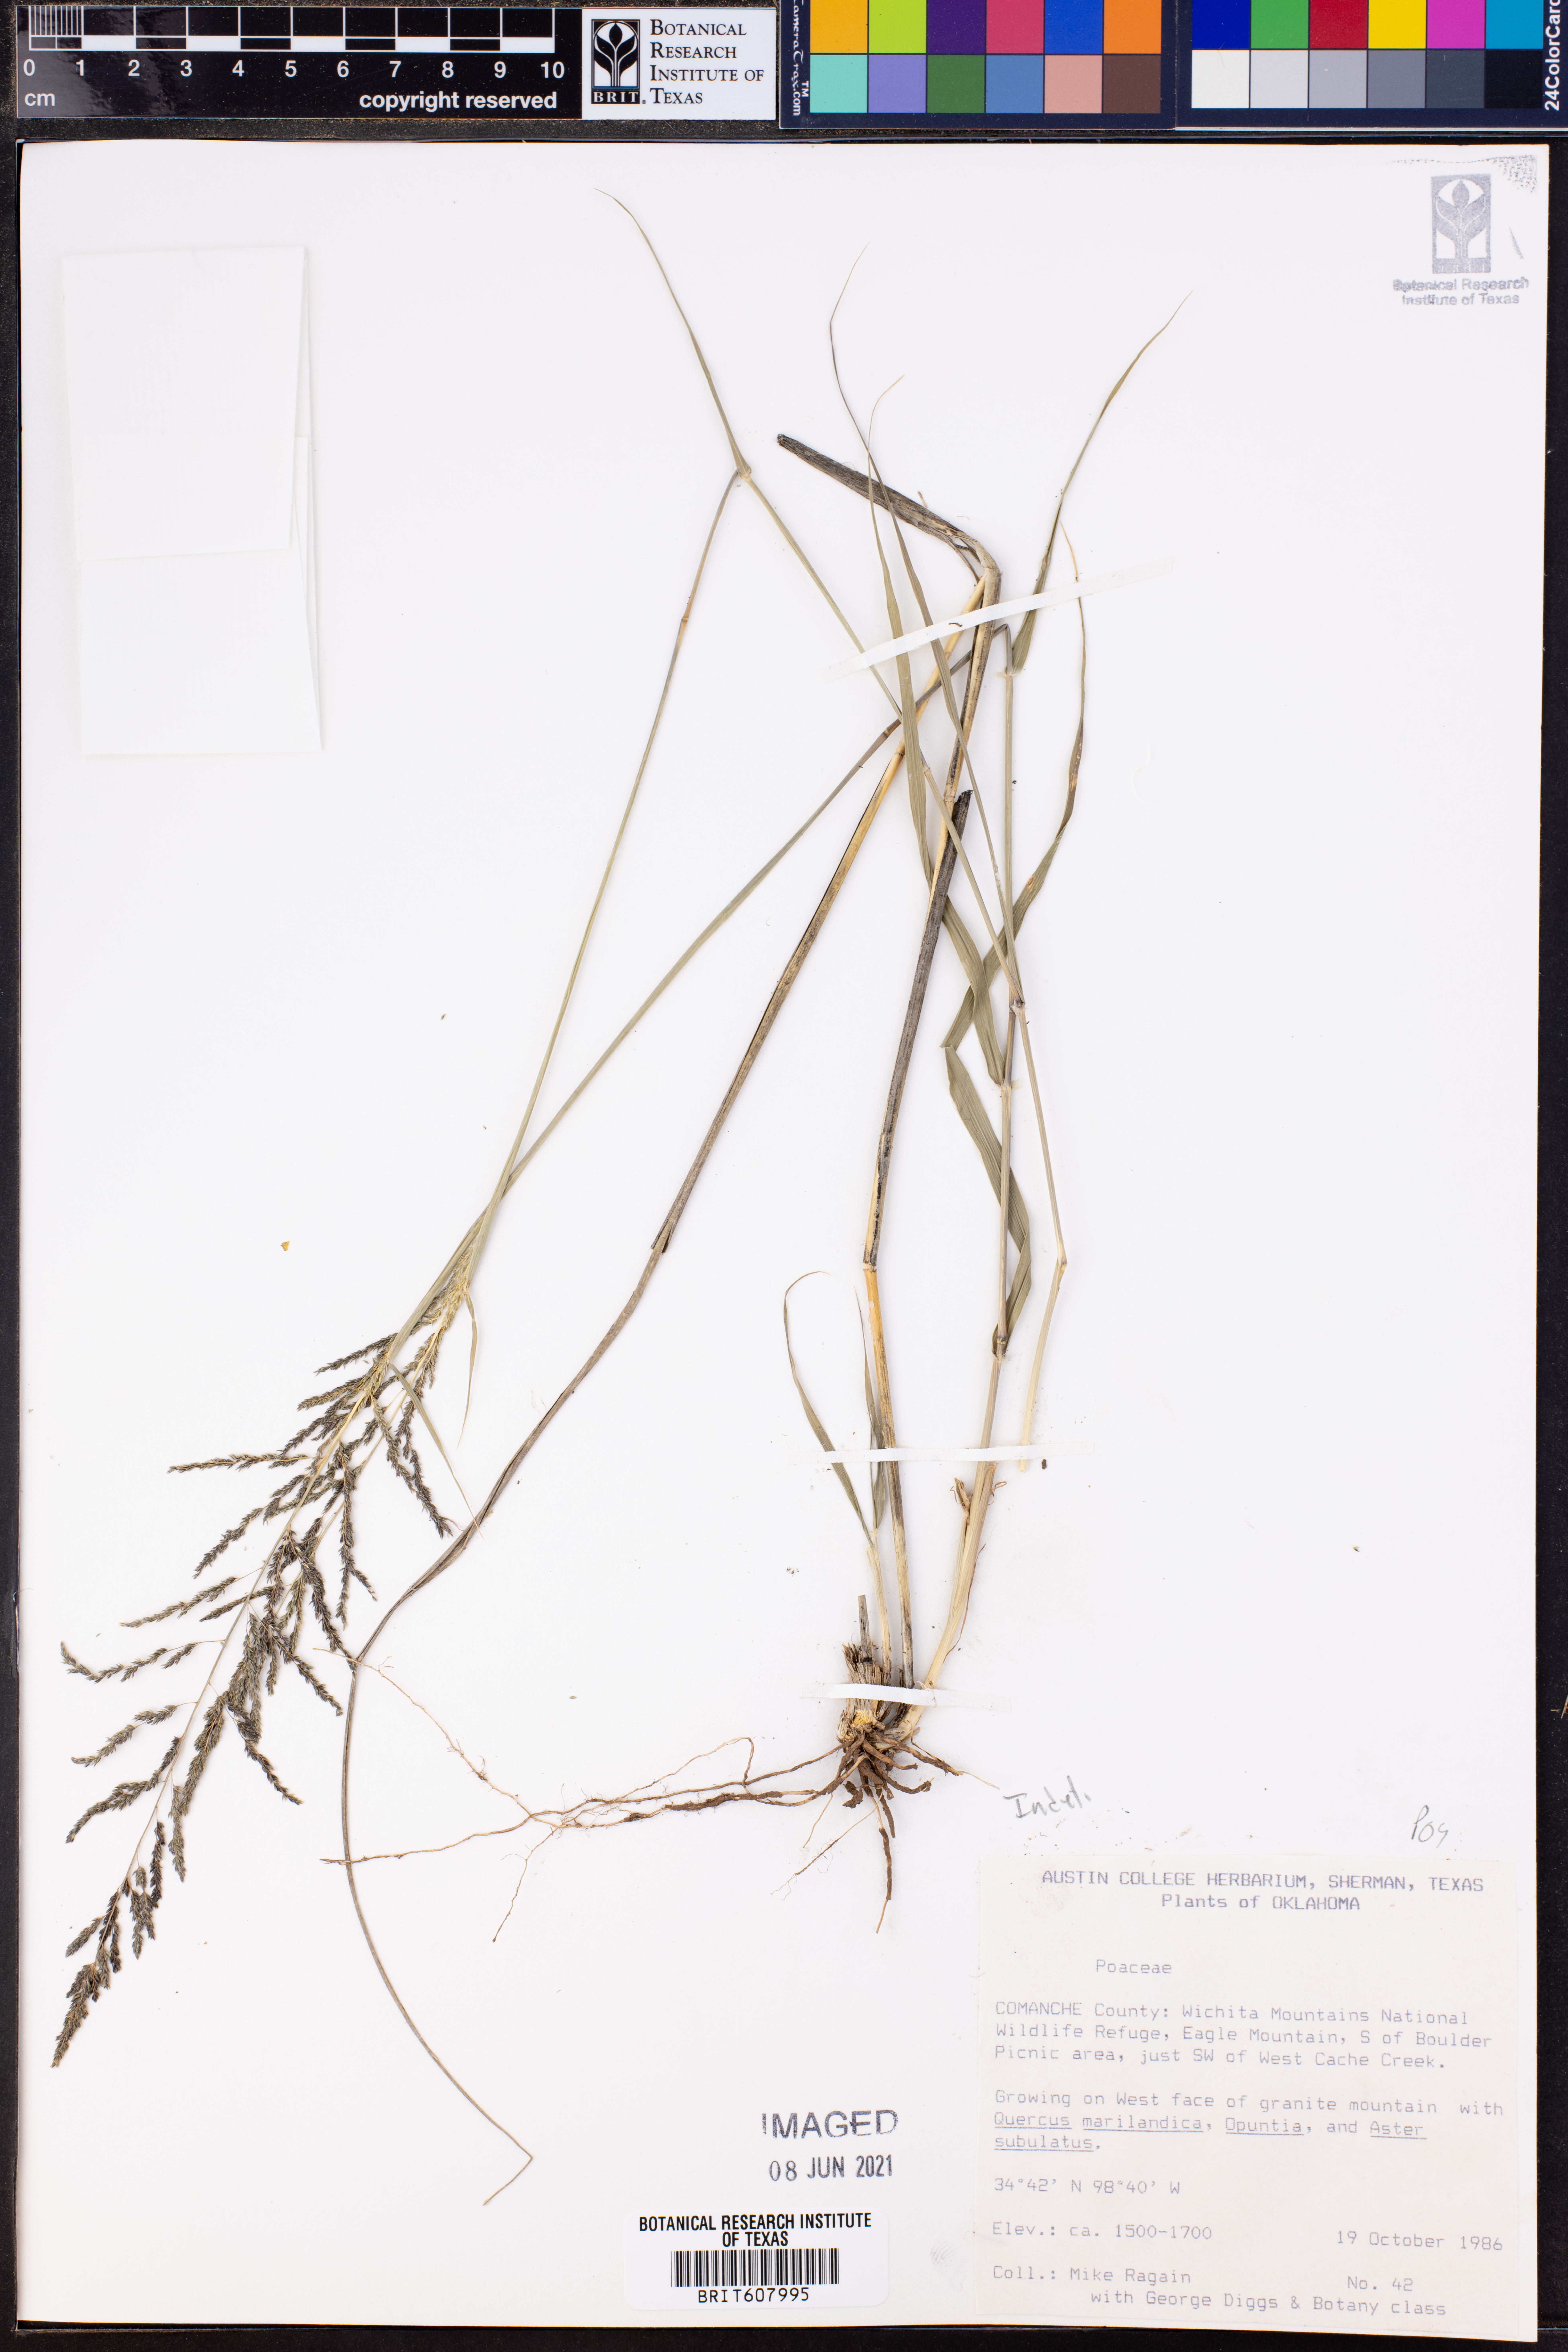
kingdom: Plantae
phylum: Tracheophyta
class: Liliopsida
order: Poales
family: Poaceae
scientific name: Poaceae
